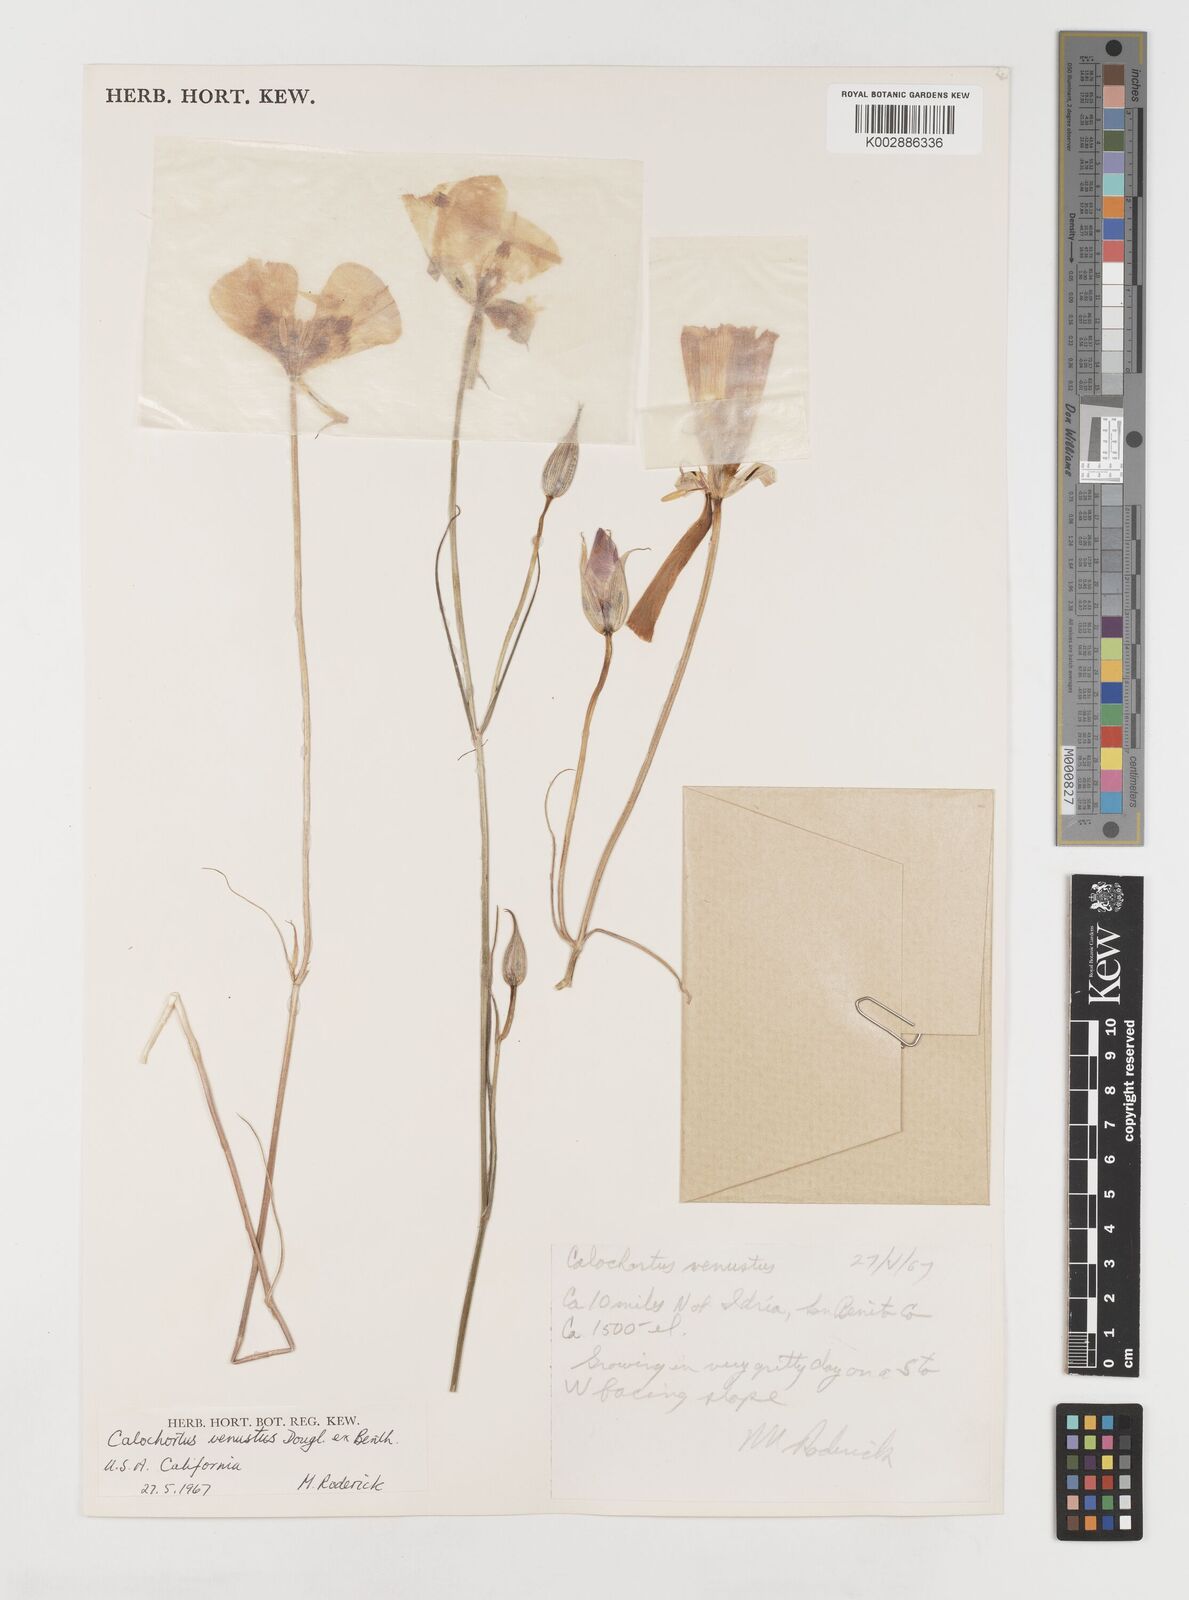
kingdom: Plantae
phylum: Tracheophyta
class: Liliopsida
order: Liliales
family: Liliaceae
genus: Calochortus
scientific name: Calochortus venustus
